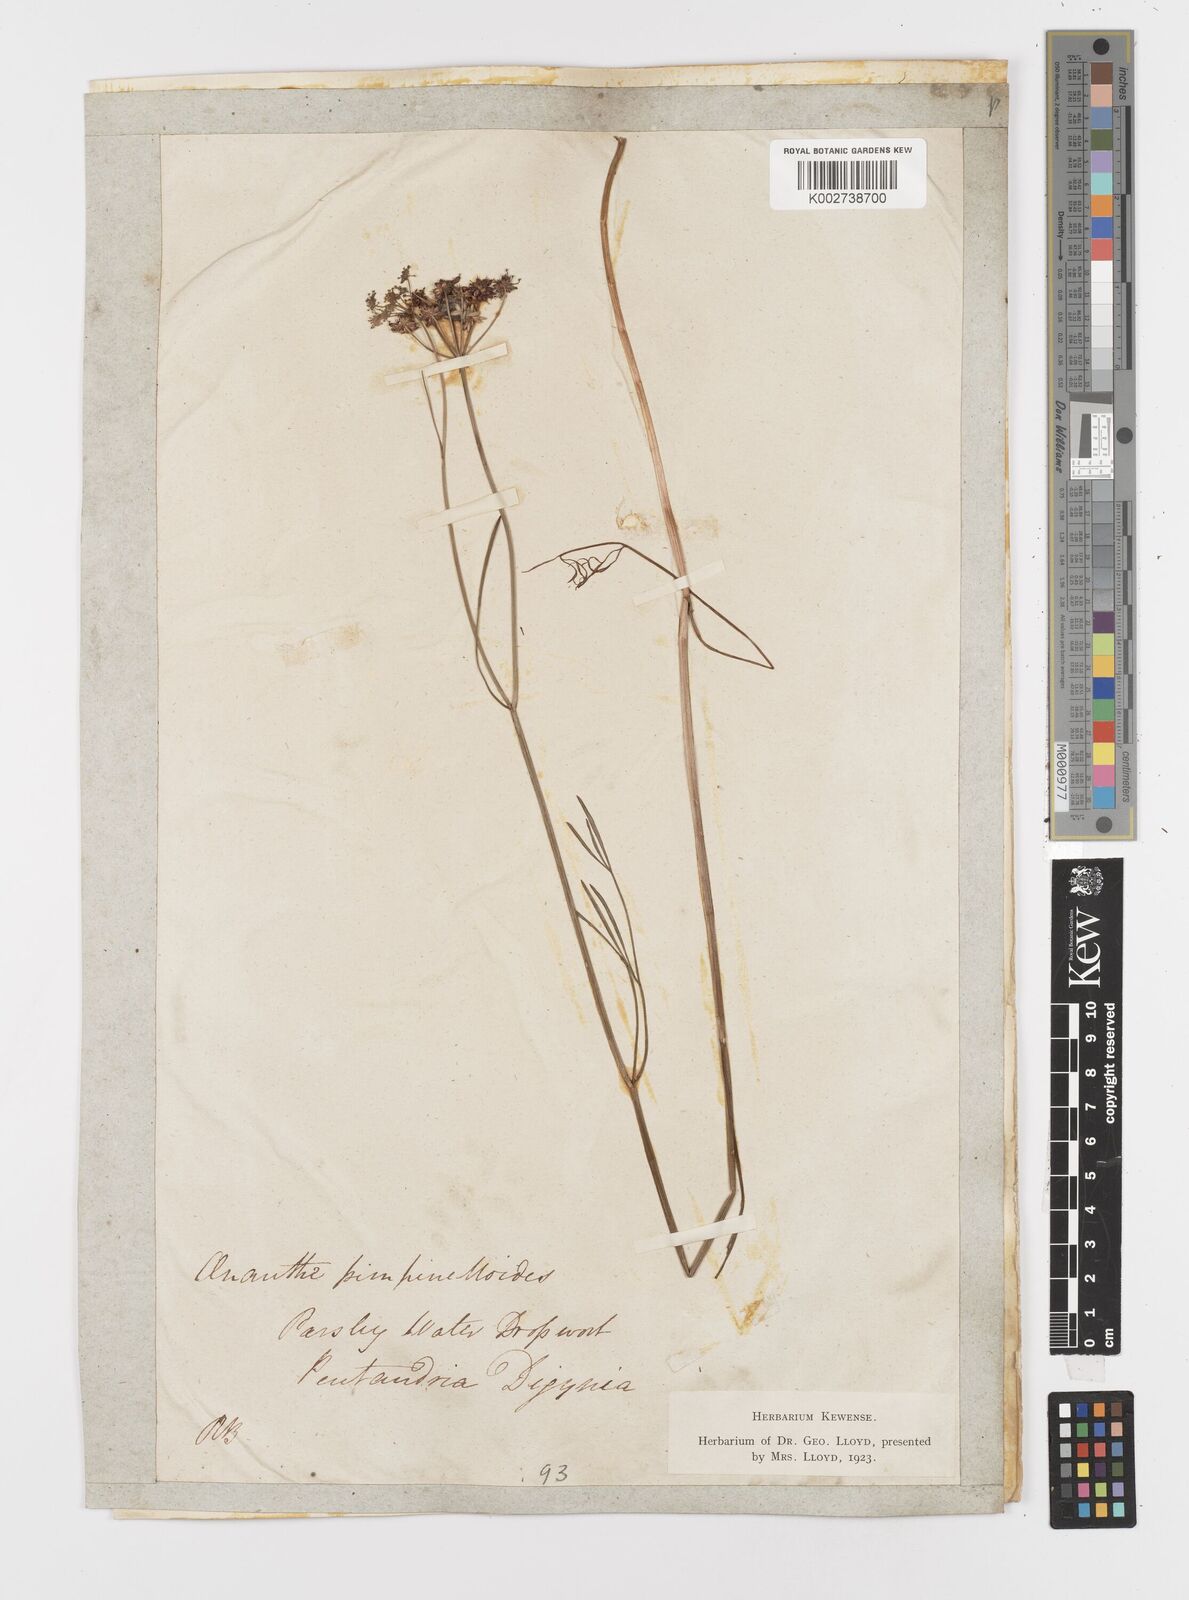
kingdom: Plantae
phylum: Tracheophyta
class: Magnoliopsida
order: Apiales
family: Apiaceae
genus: Oenanthe
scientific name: Oenanthe pimpinelloides
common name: Corky-fruited water-dropwort
